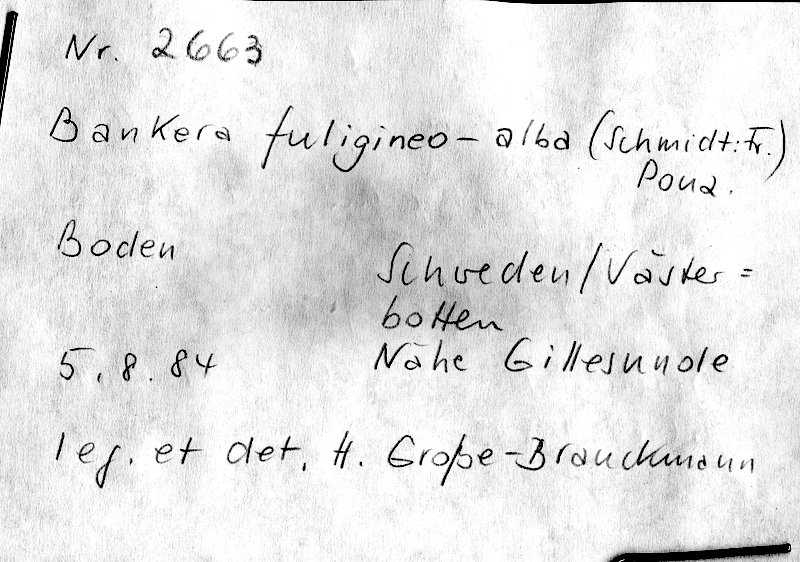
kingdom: Fungi
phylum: Basidiomycota
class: Agaricomycetes
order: Thelephorales
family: Thelephoraceae
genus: Phellodon
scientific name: Phellodon fuligineoalbus
